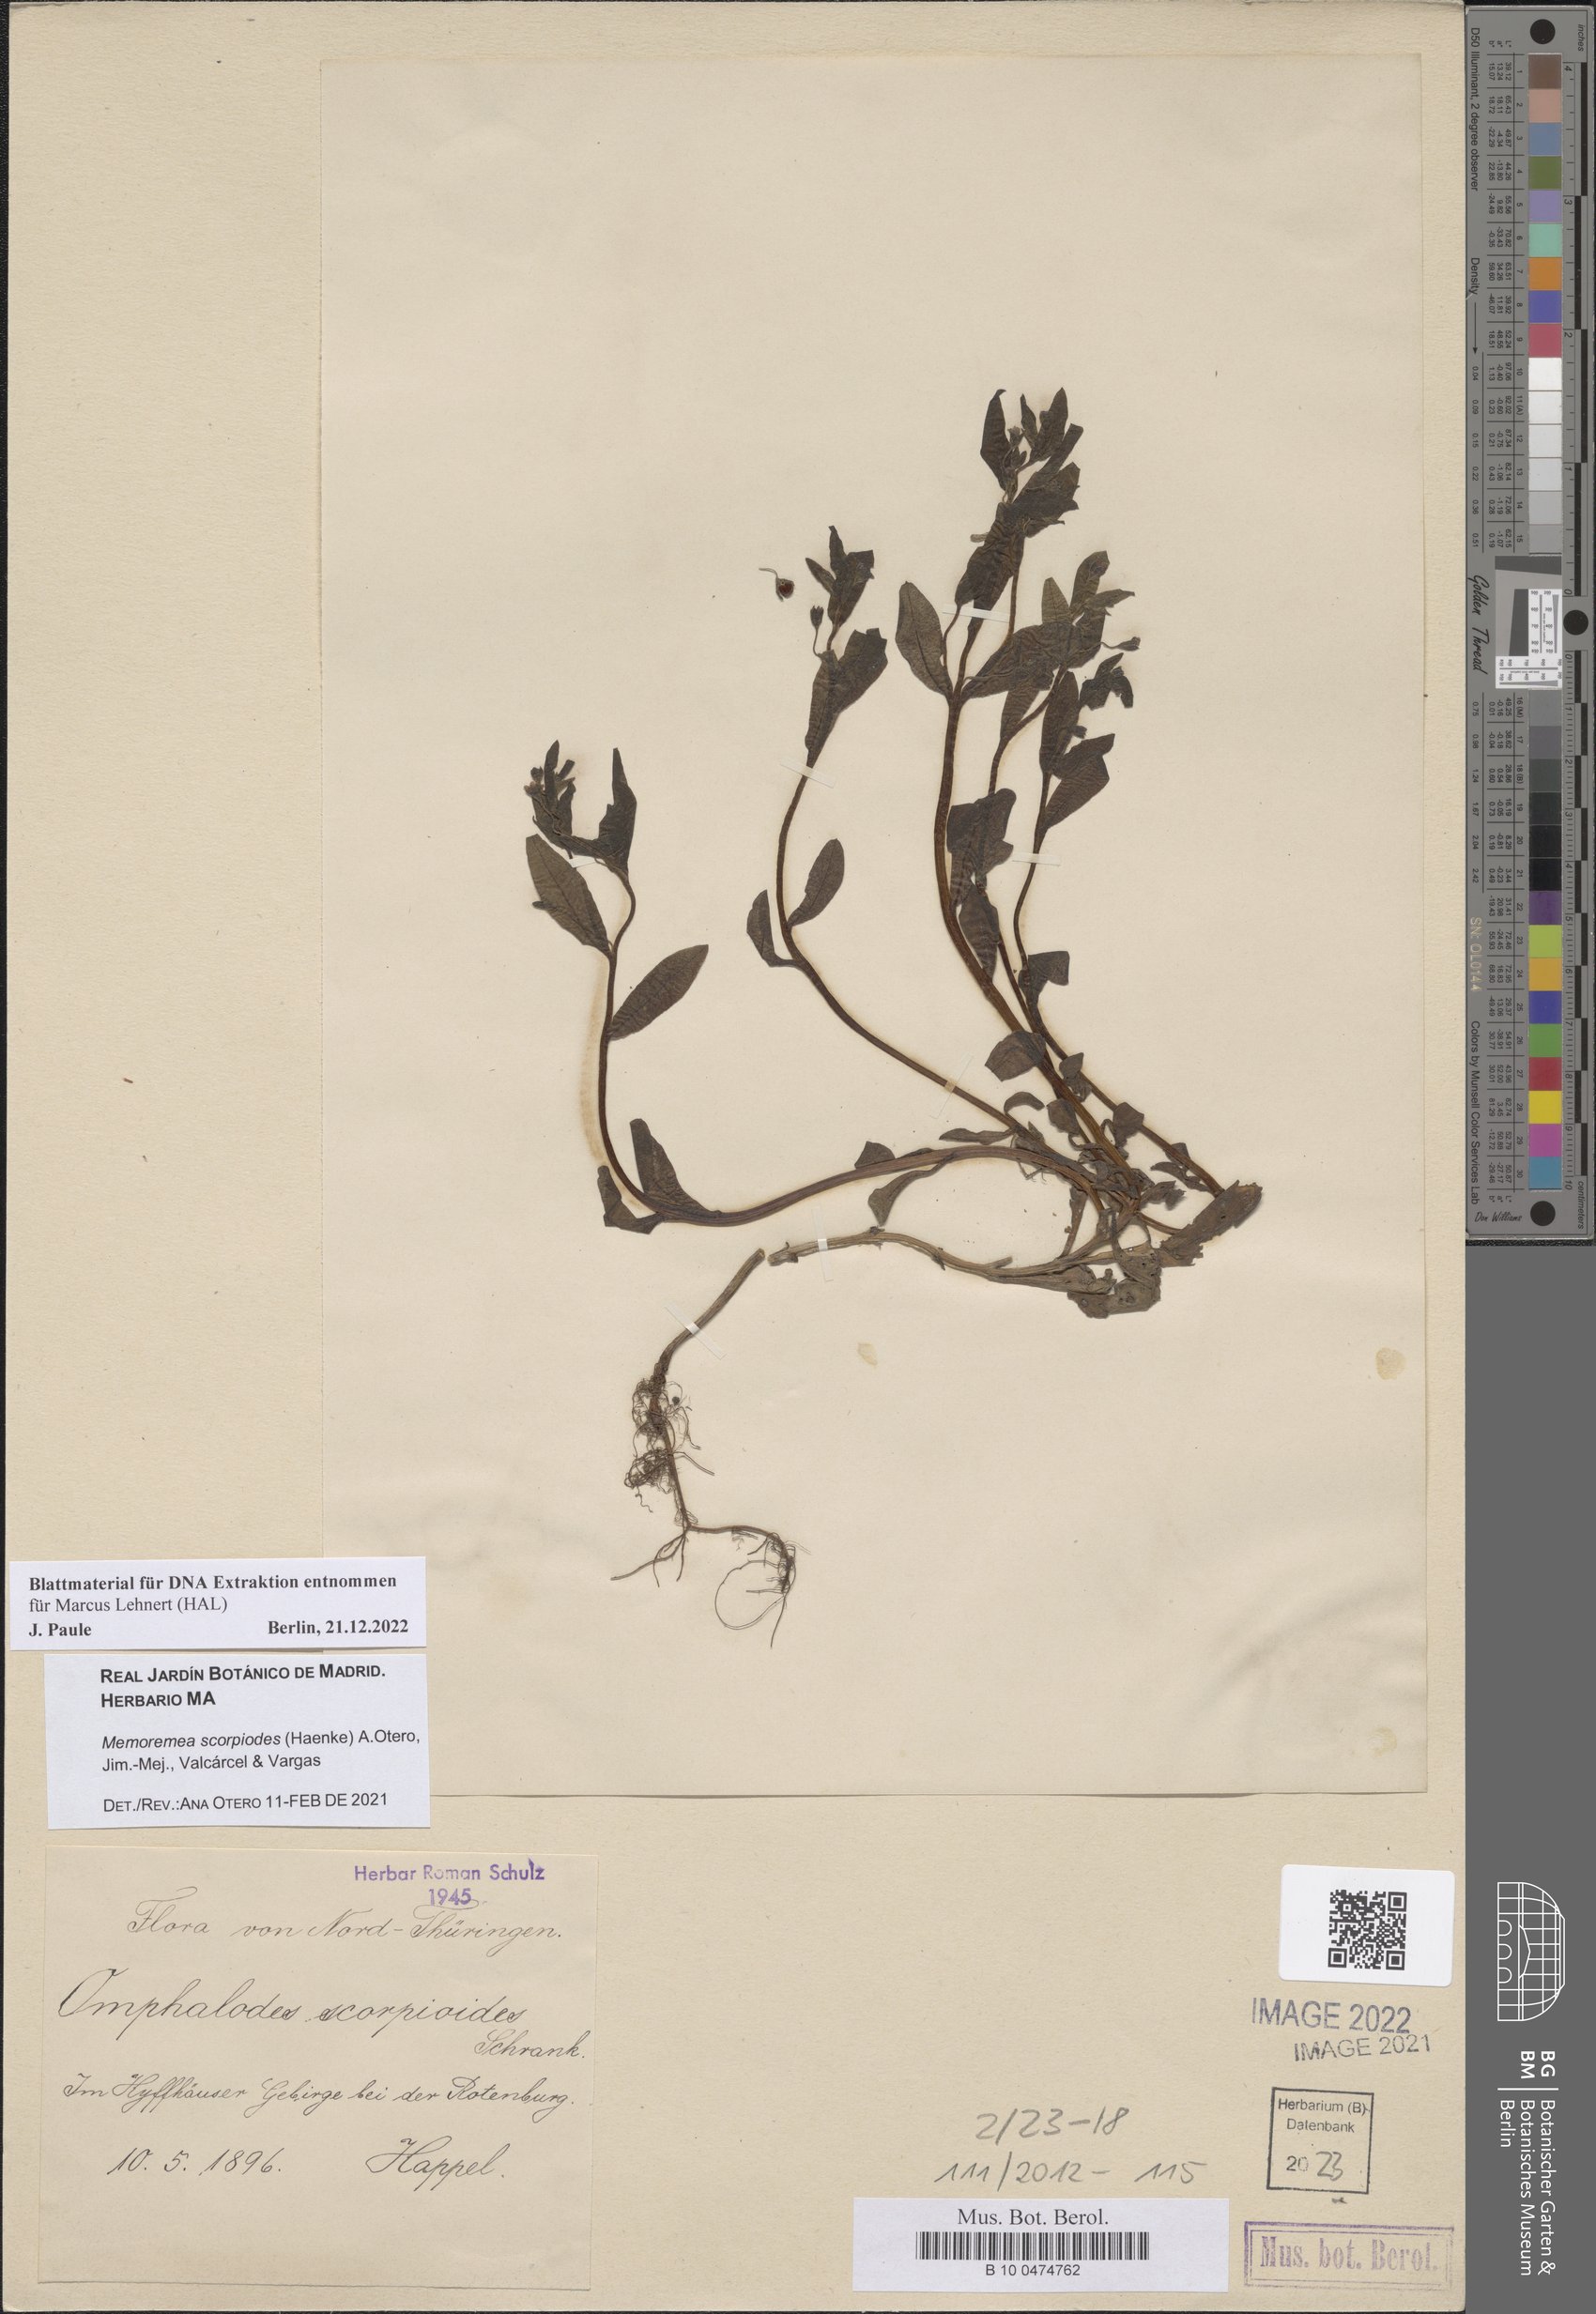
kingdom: Plantae
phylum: Tracheophyta
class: Magnoliopsida
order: Boraginales
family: Boraginaceae
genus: Memoremea
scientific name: Memoremea scorpioides
